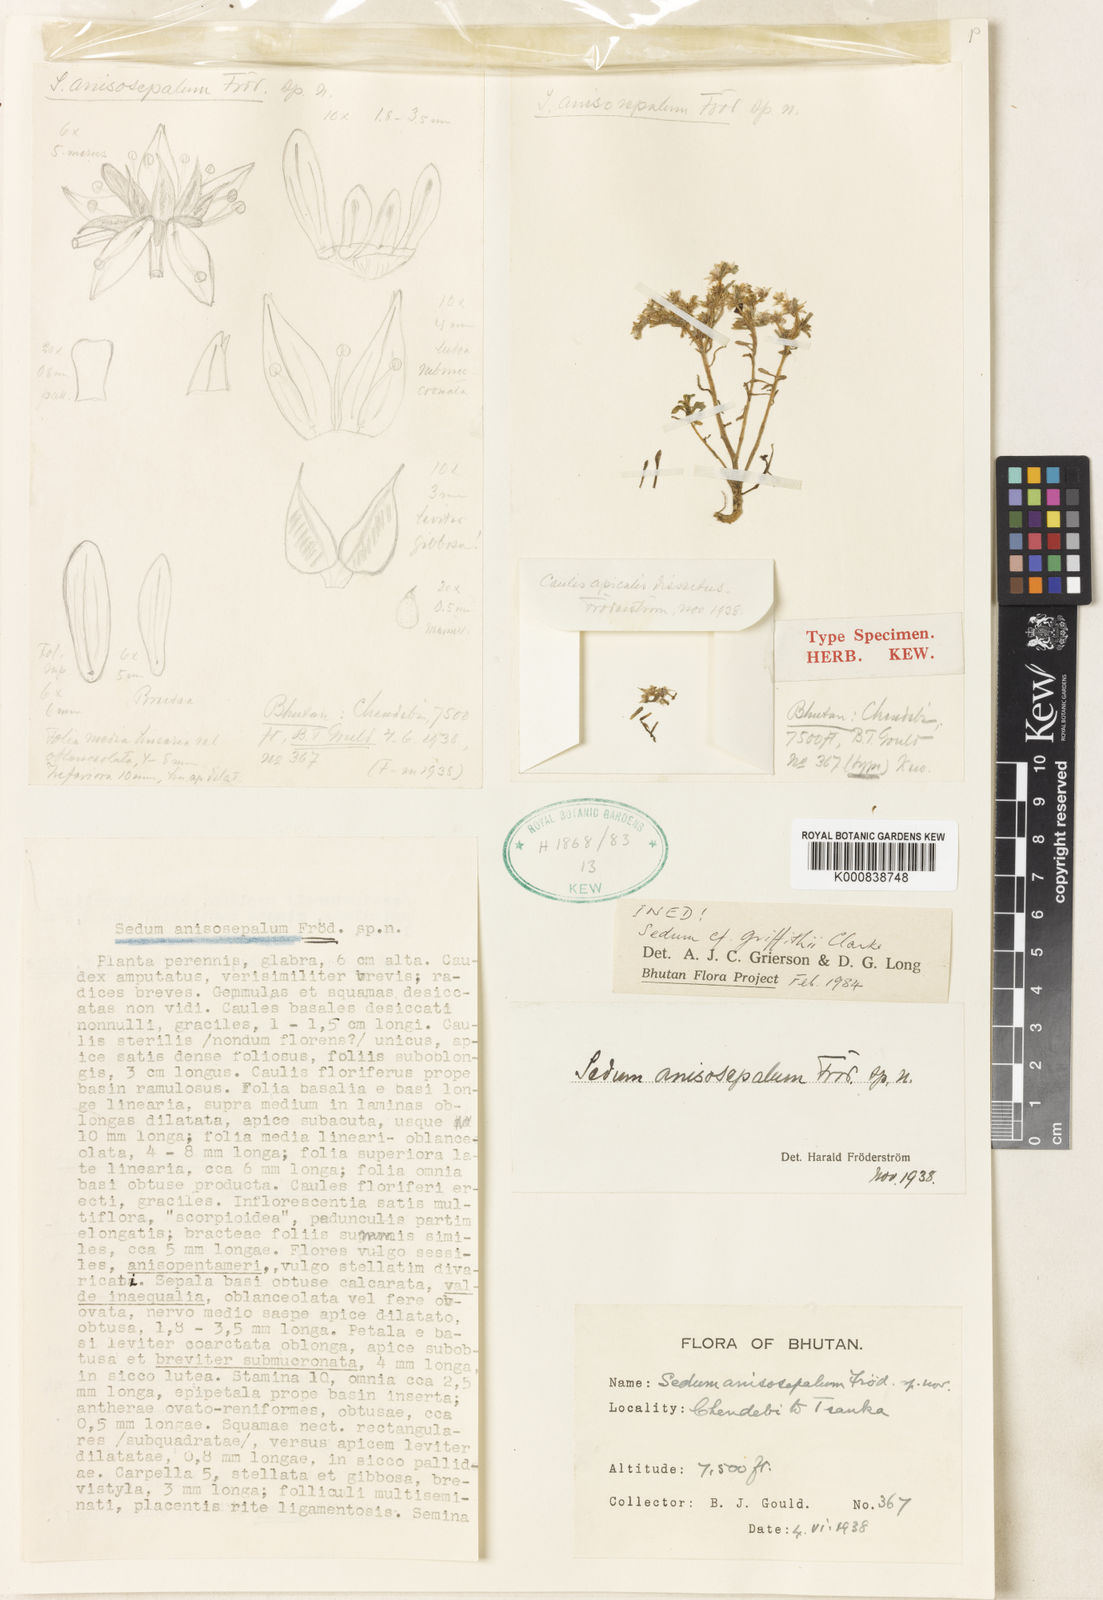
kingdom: Plantae
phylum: Tracheophyta
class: Magnoliopsida
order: Saxifragales
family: Crassulaceae
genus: Sedum
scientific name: Sedum
